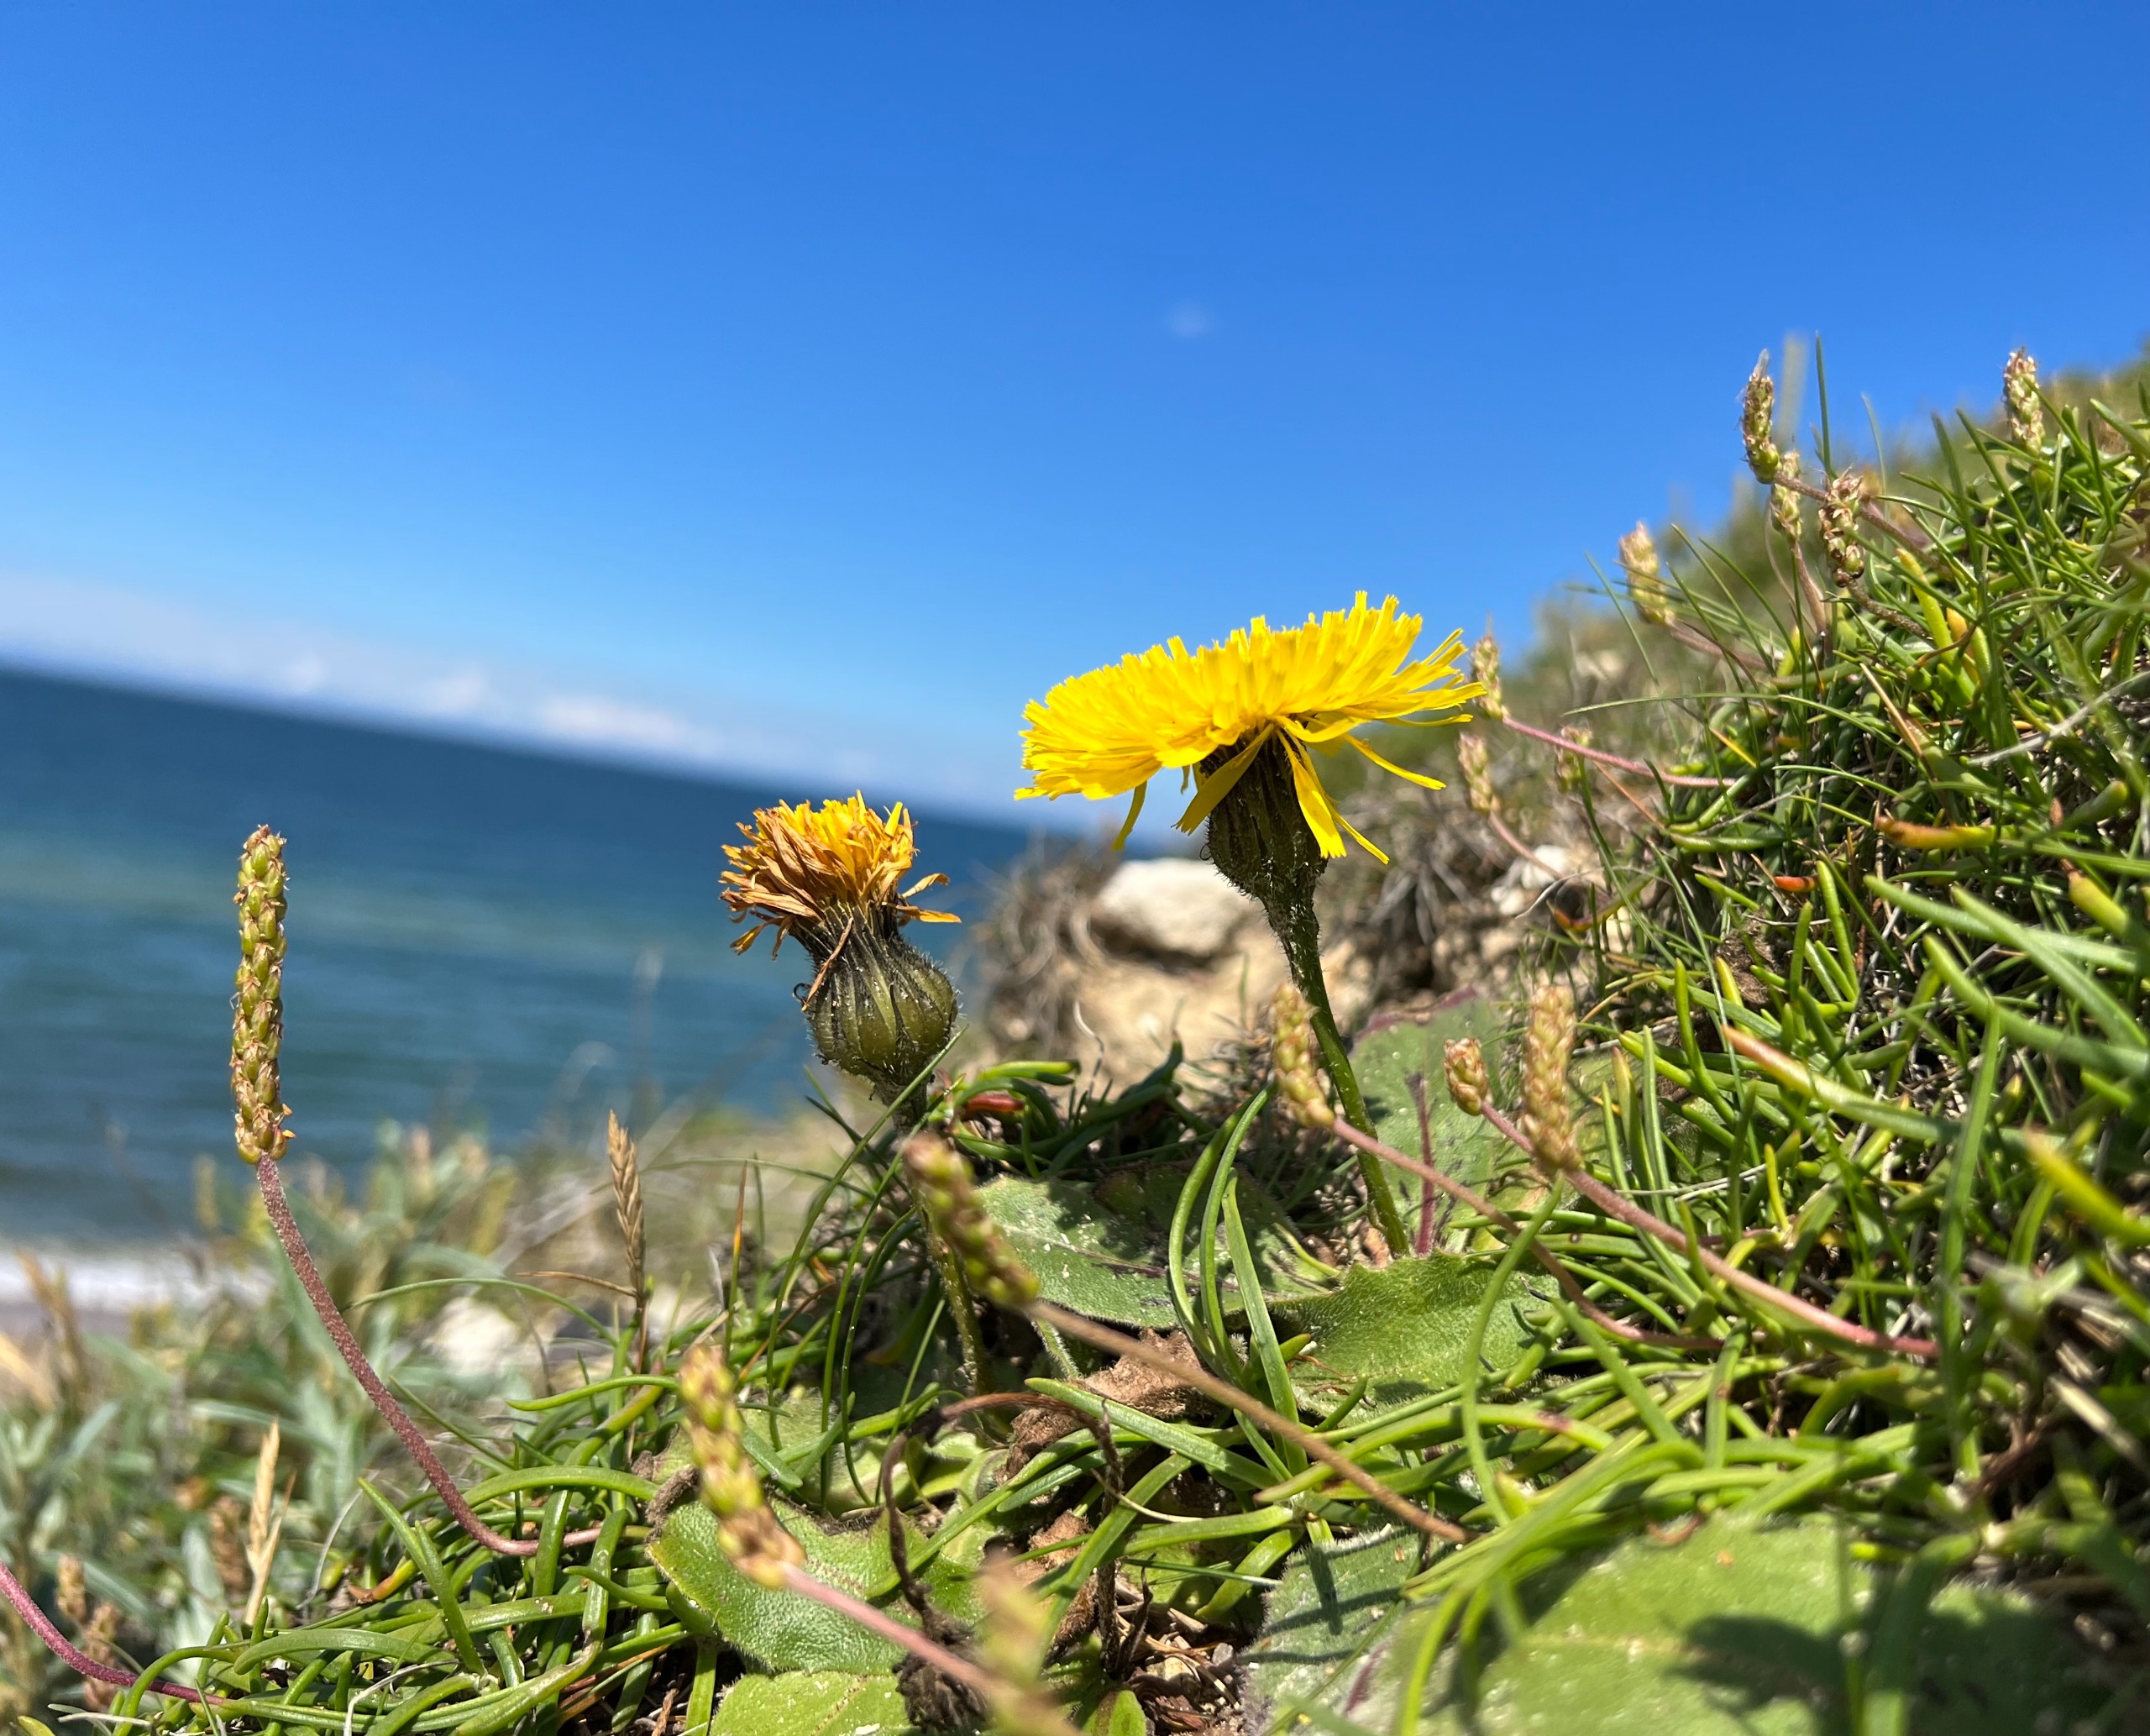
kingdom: Plantae
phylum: Tracheophyta
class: Magnoliopsida
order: Asterales
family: Asteraceae
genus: Trommsdorffia
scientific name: Trommsdorffia maculata
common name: Plettet kongepen
